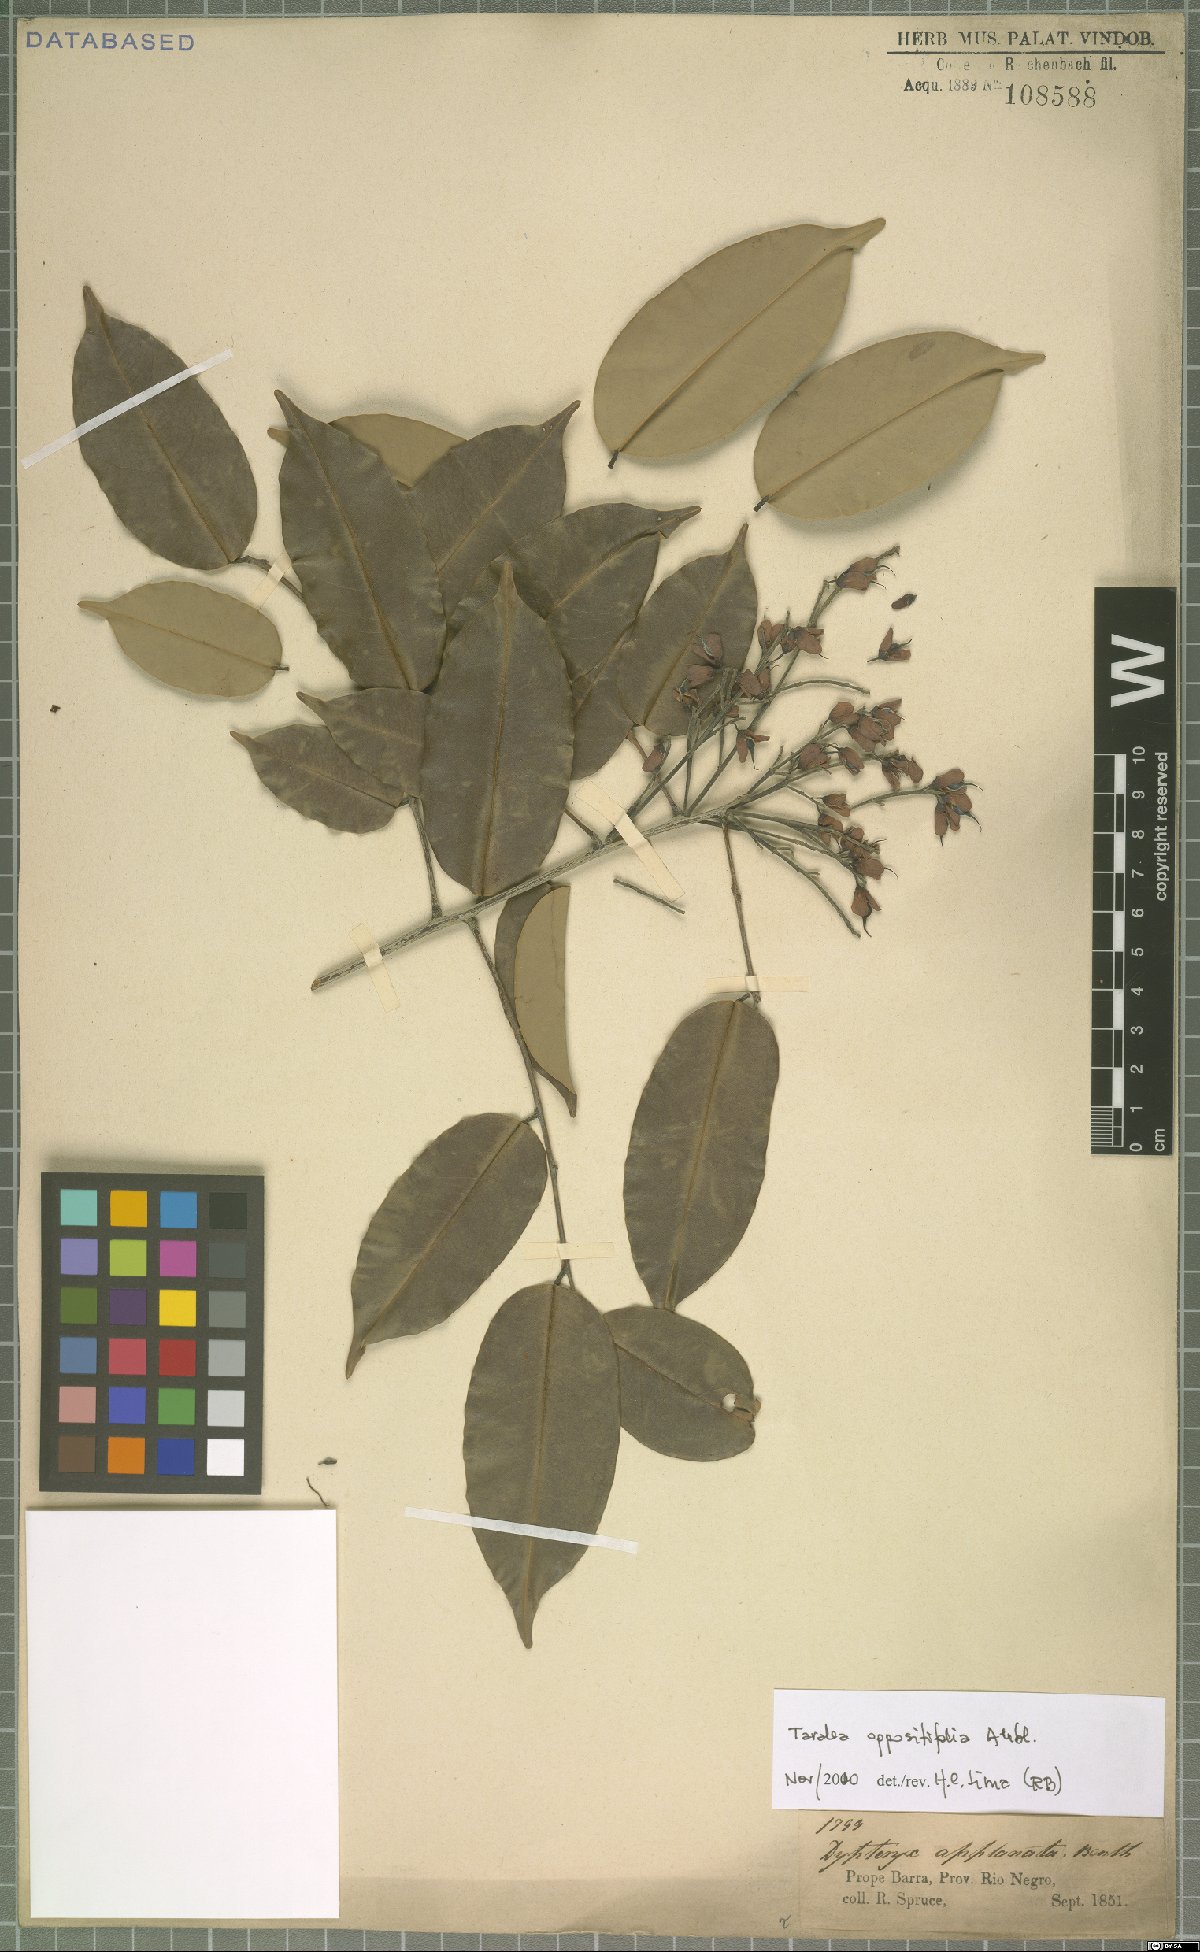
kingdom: Plantae
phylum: Tracheophyta
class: Magnoliopsida
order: Fabales
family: Fabaceae
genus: Taralea
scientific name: Taralea oppositifolia
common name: Tonka
